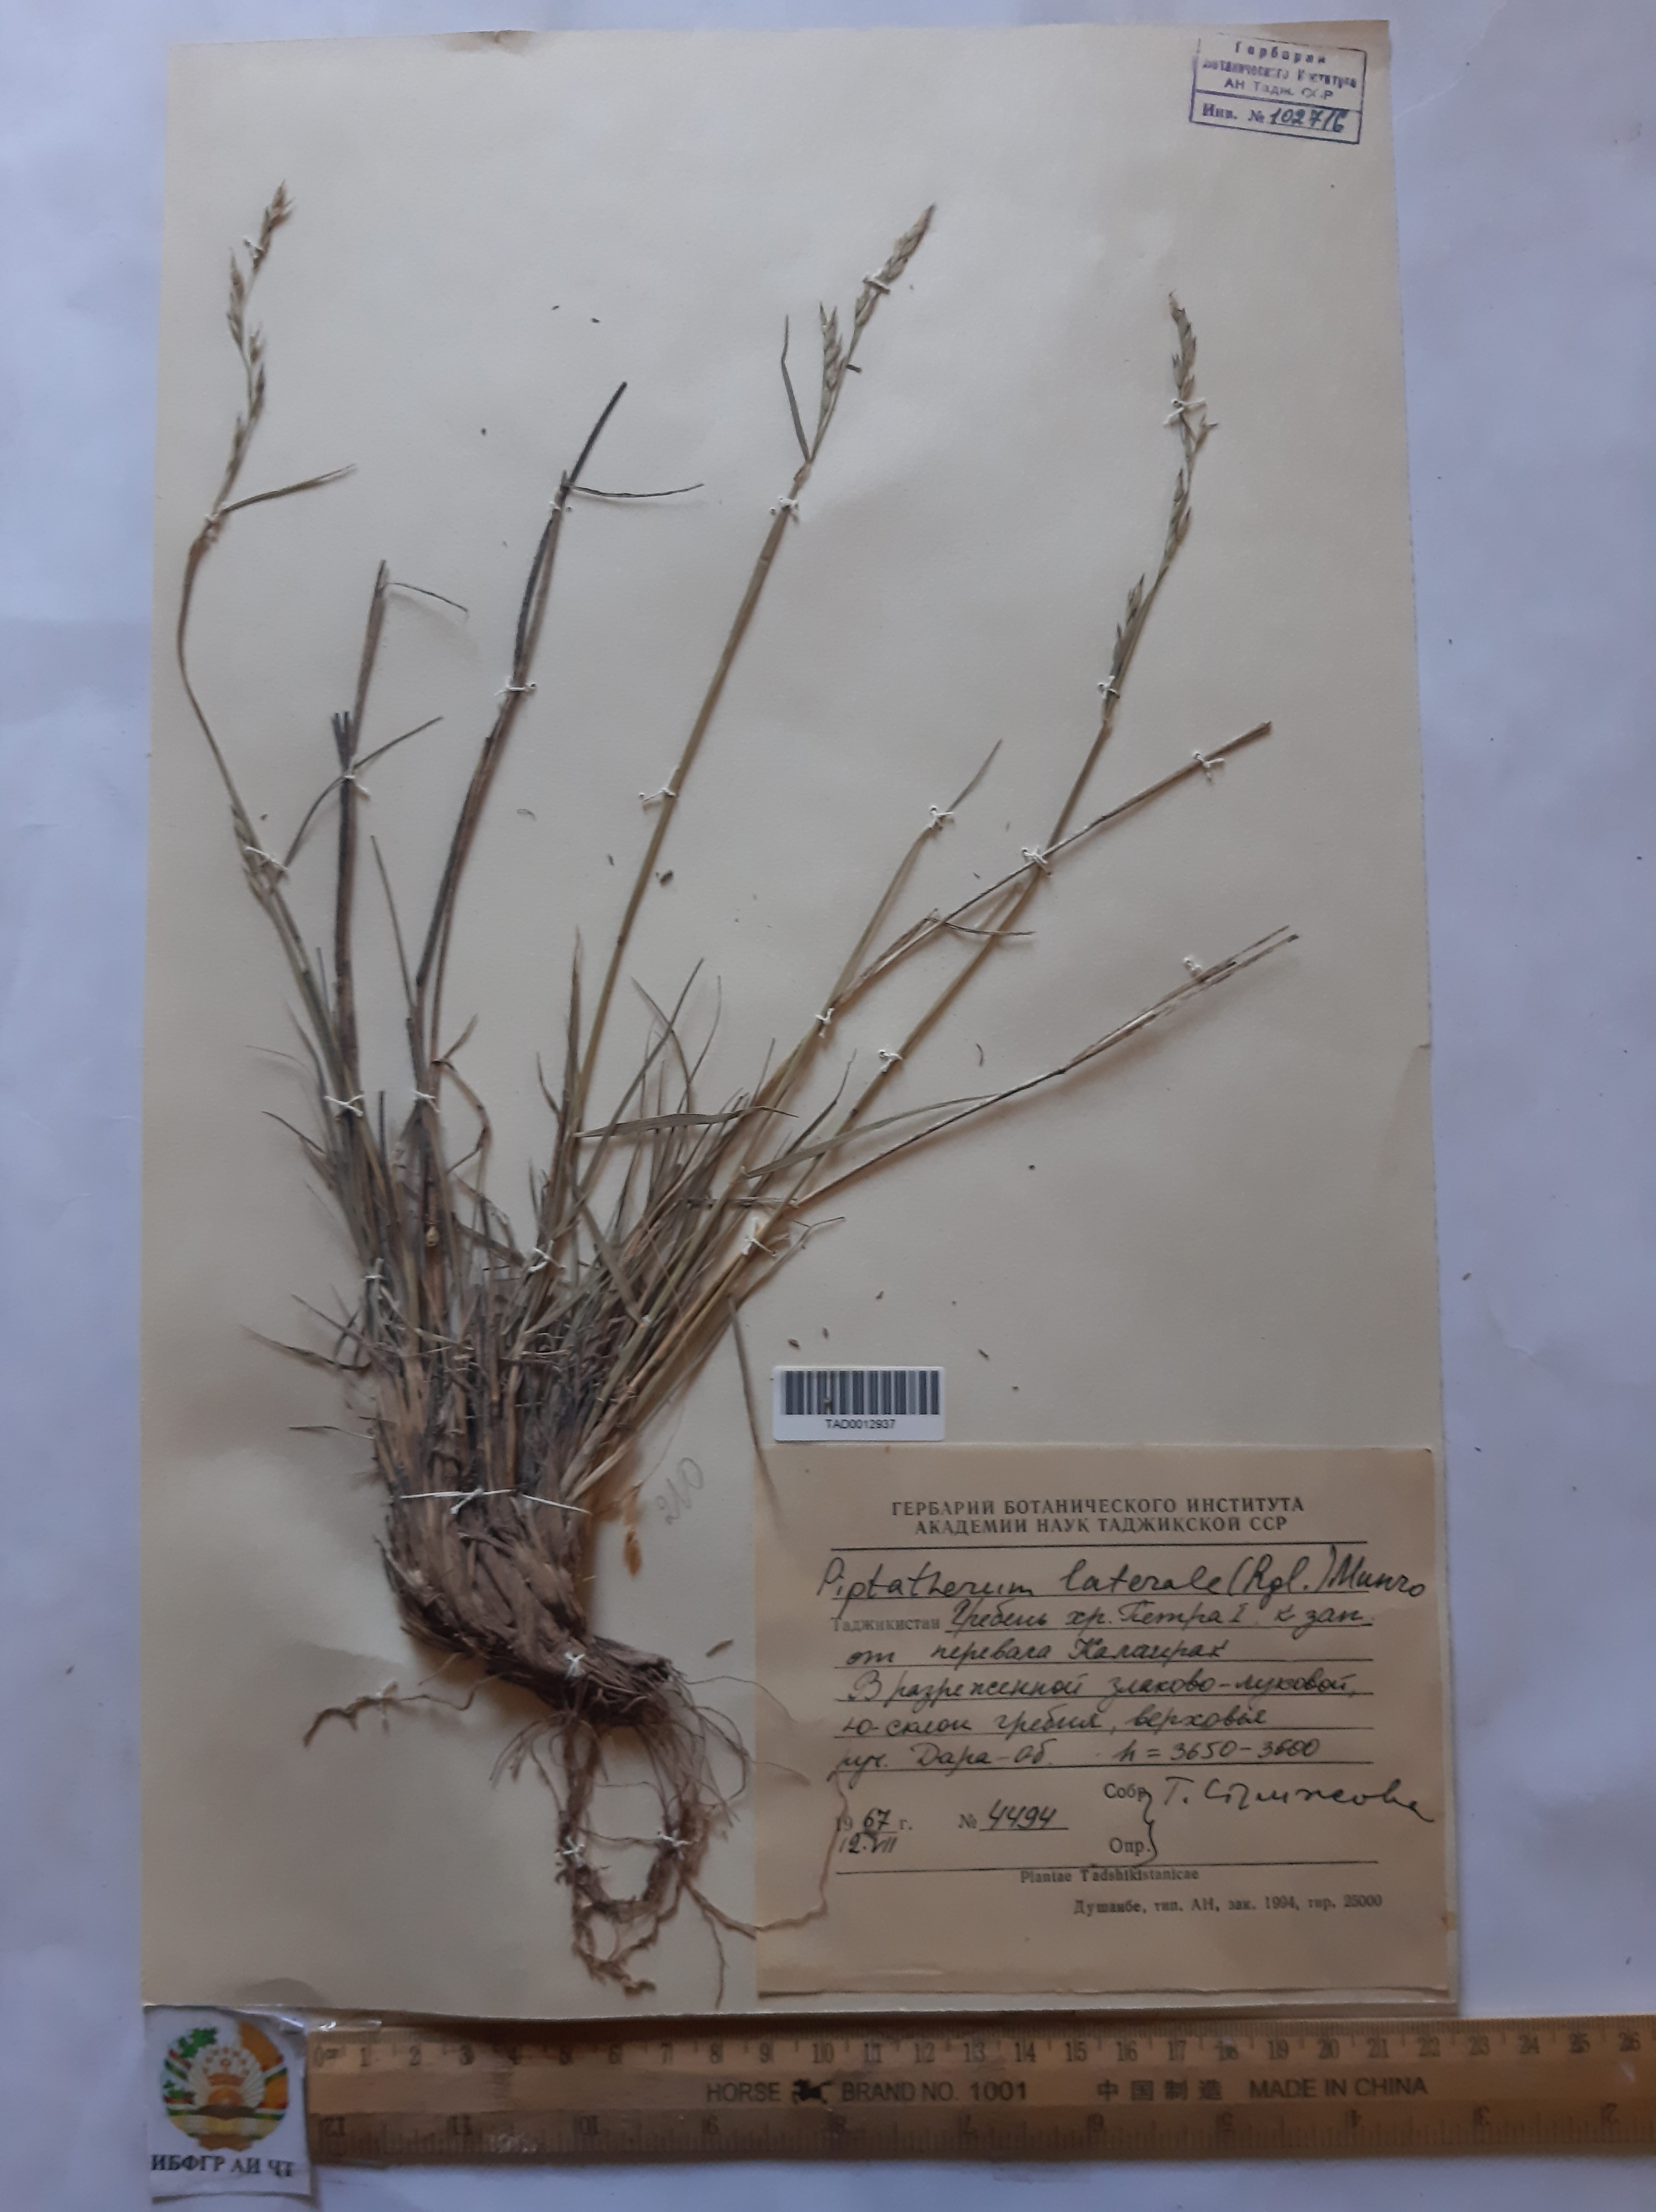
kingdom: Plantae
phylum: Tracheophyta
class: Liliopsida
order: Poales
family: Poaceae
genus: Piptatherum
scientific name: Piptatherum laterale
